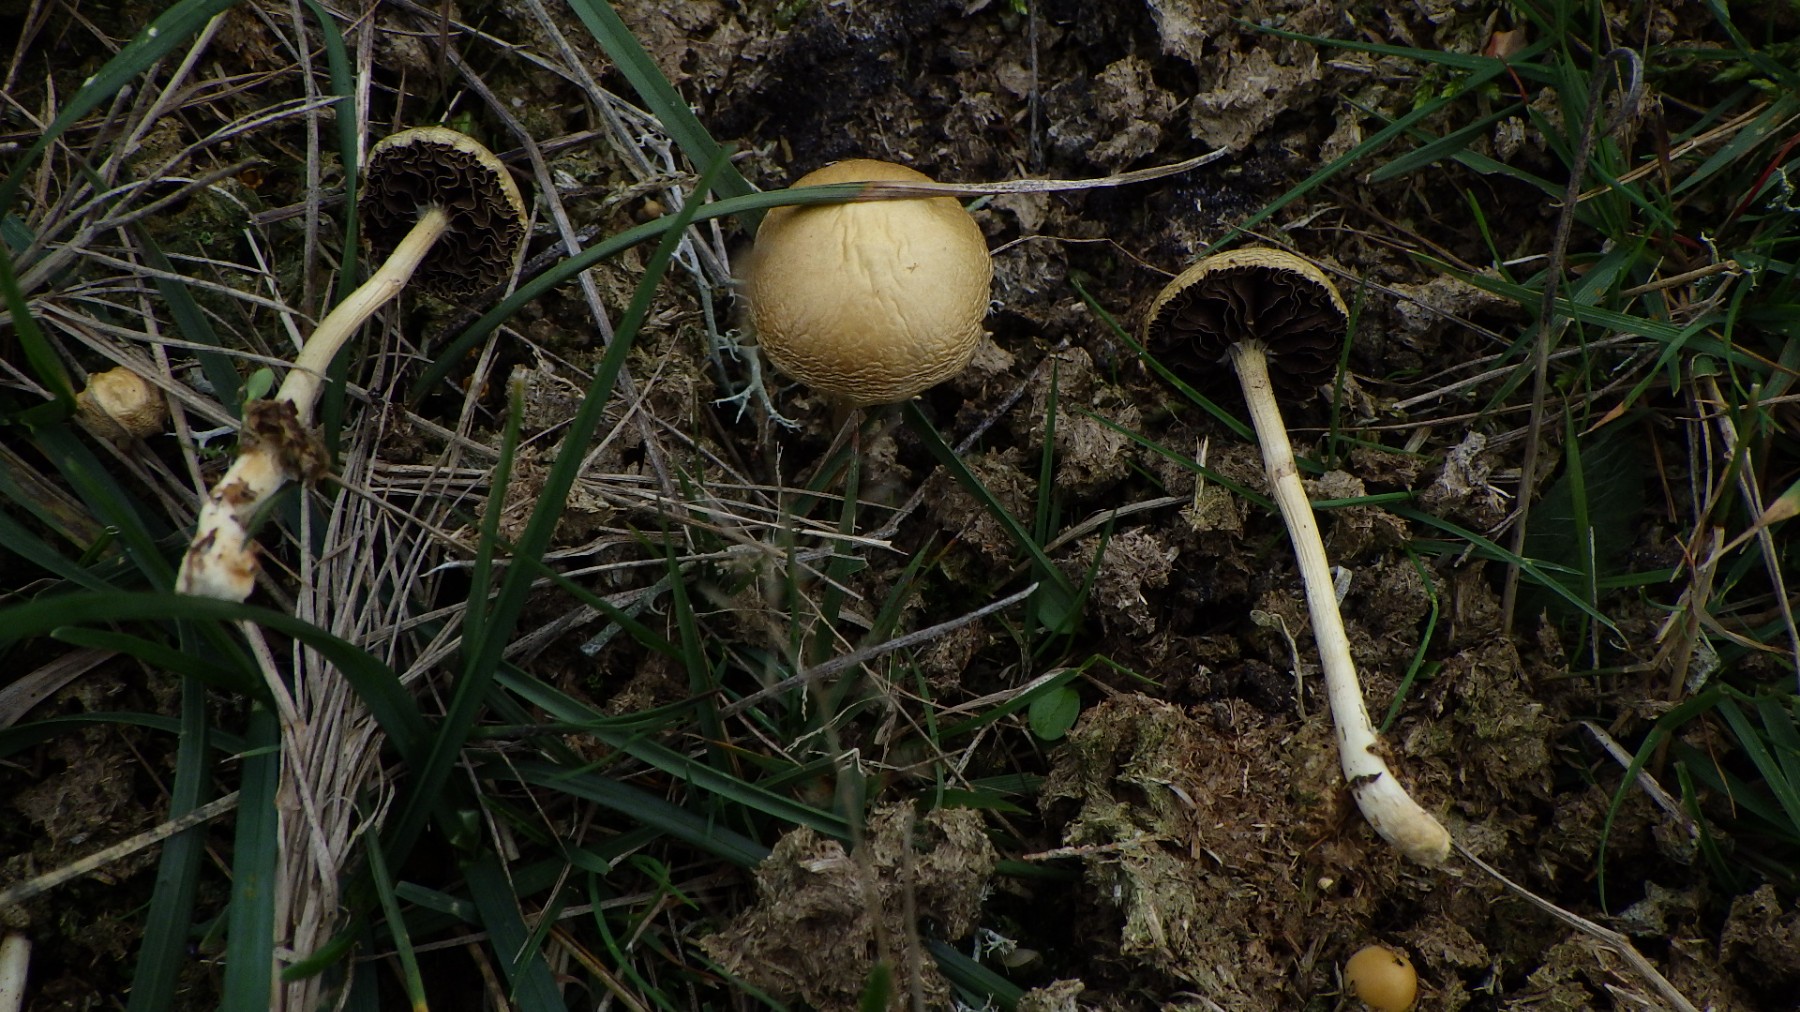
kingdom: Fungi
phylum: Basidiomycota
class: Agaricomycetes
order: Agaricales
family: Strophariaceae
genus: Protostropharia
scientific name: Protostropharia semiglobata
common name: halvkugleformet bredblad
